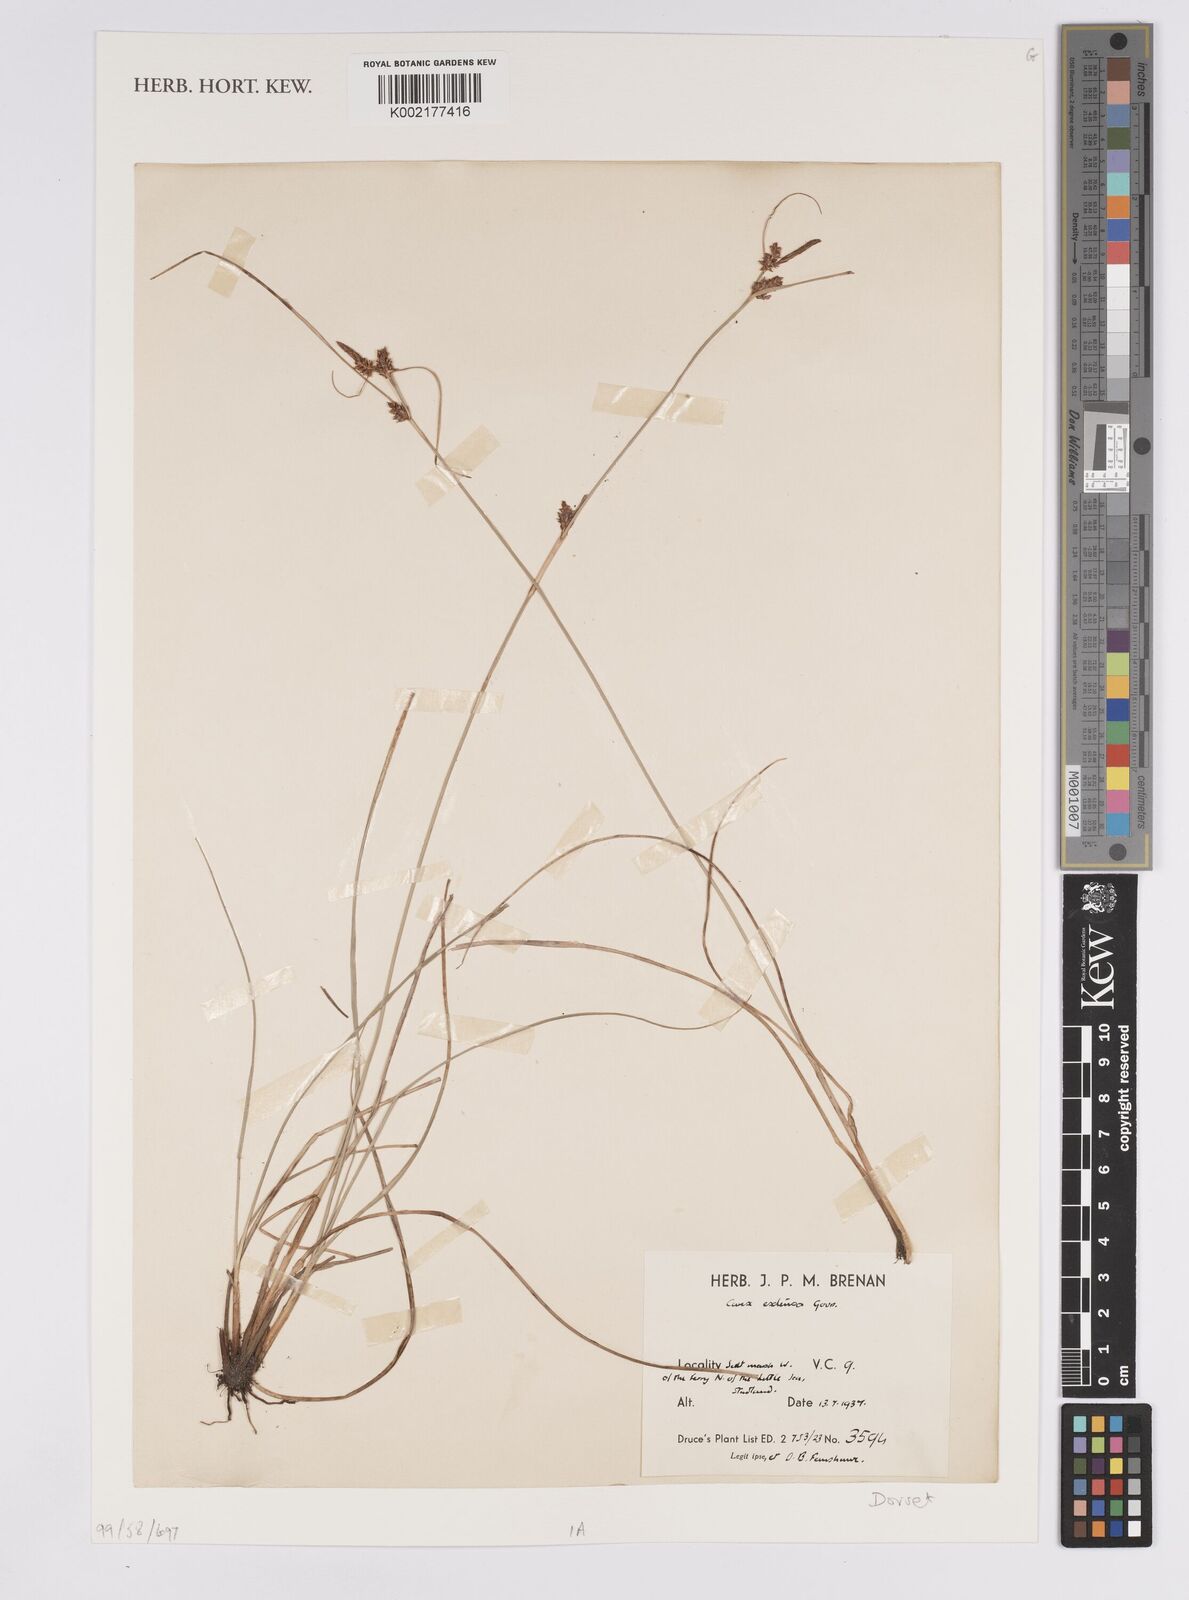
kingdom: Plantae
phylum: Tracheophyta
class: Liliopsida
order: Poales
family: Cyperaceae
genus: Carex
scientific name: Carex extensa
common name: Long-bracted sedge
